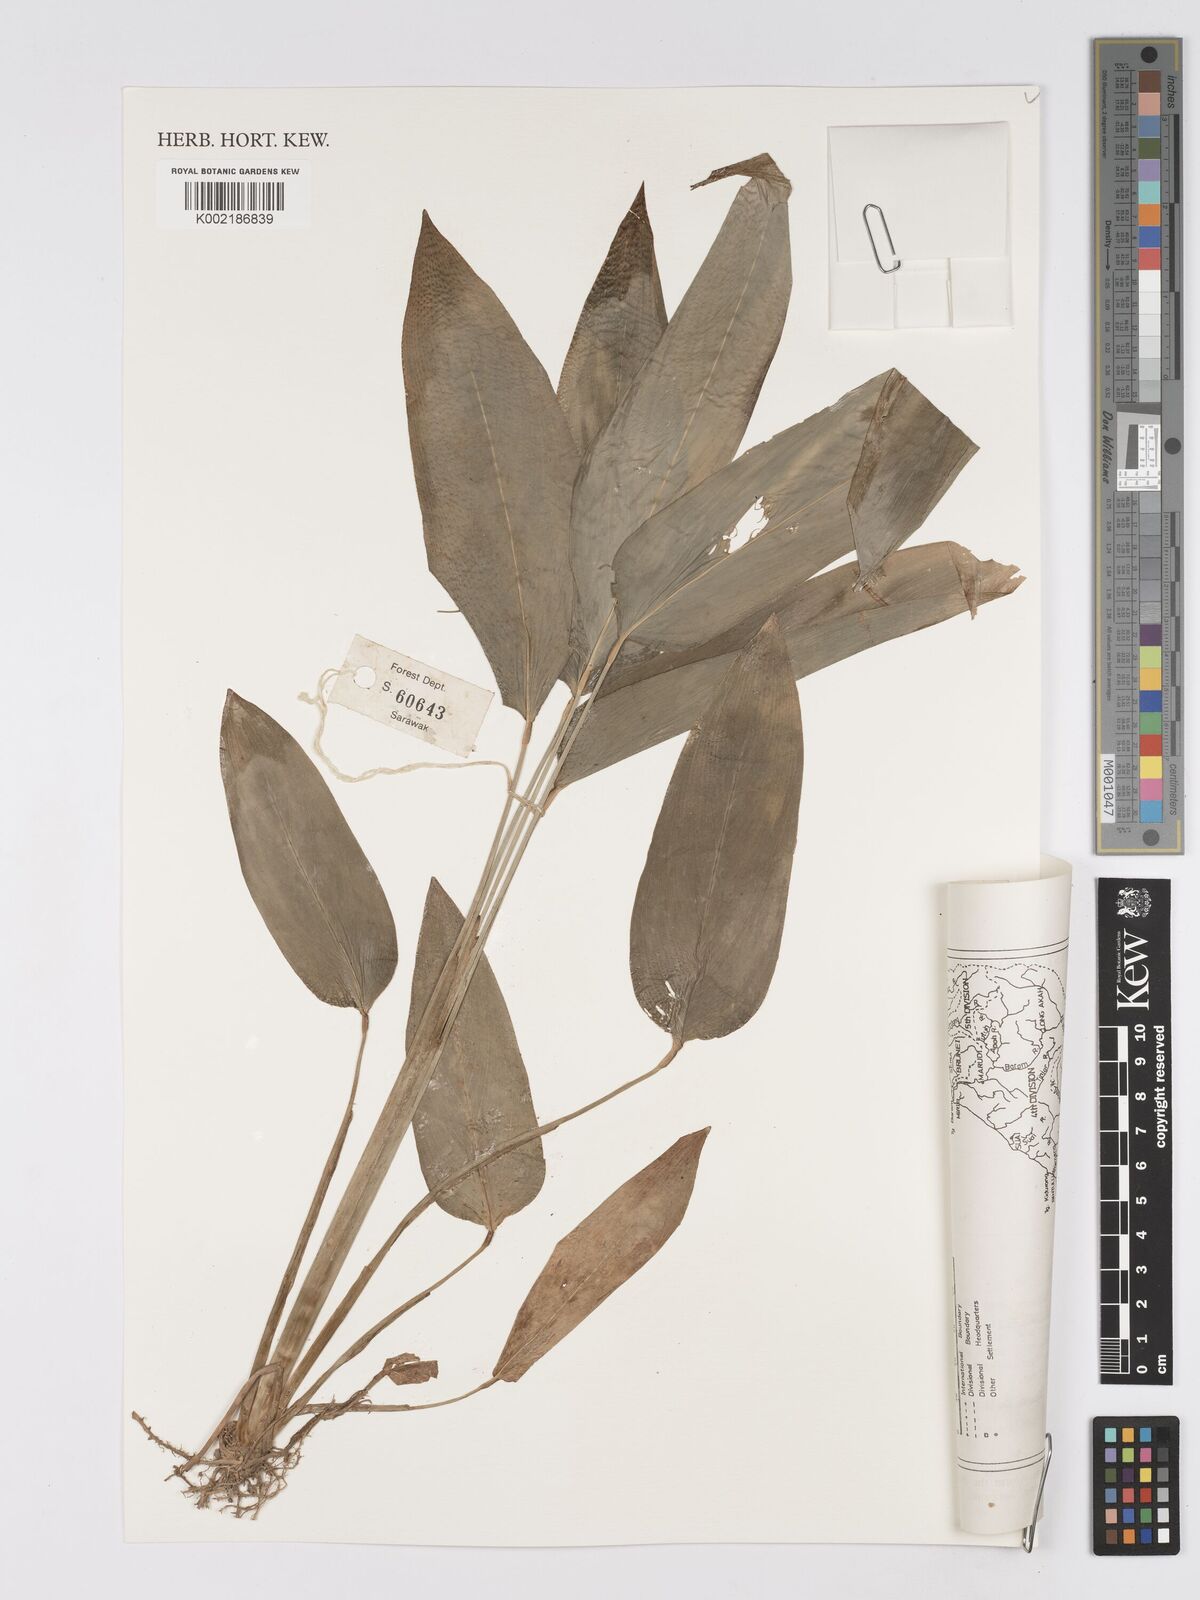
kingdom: Plantae
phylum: Tracheophyta
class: Liliopsida
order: Zingiberales
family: Marantaceae
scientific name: Marantaceae
